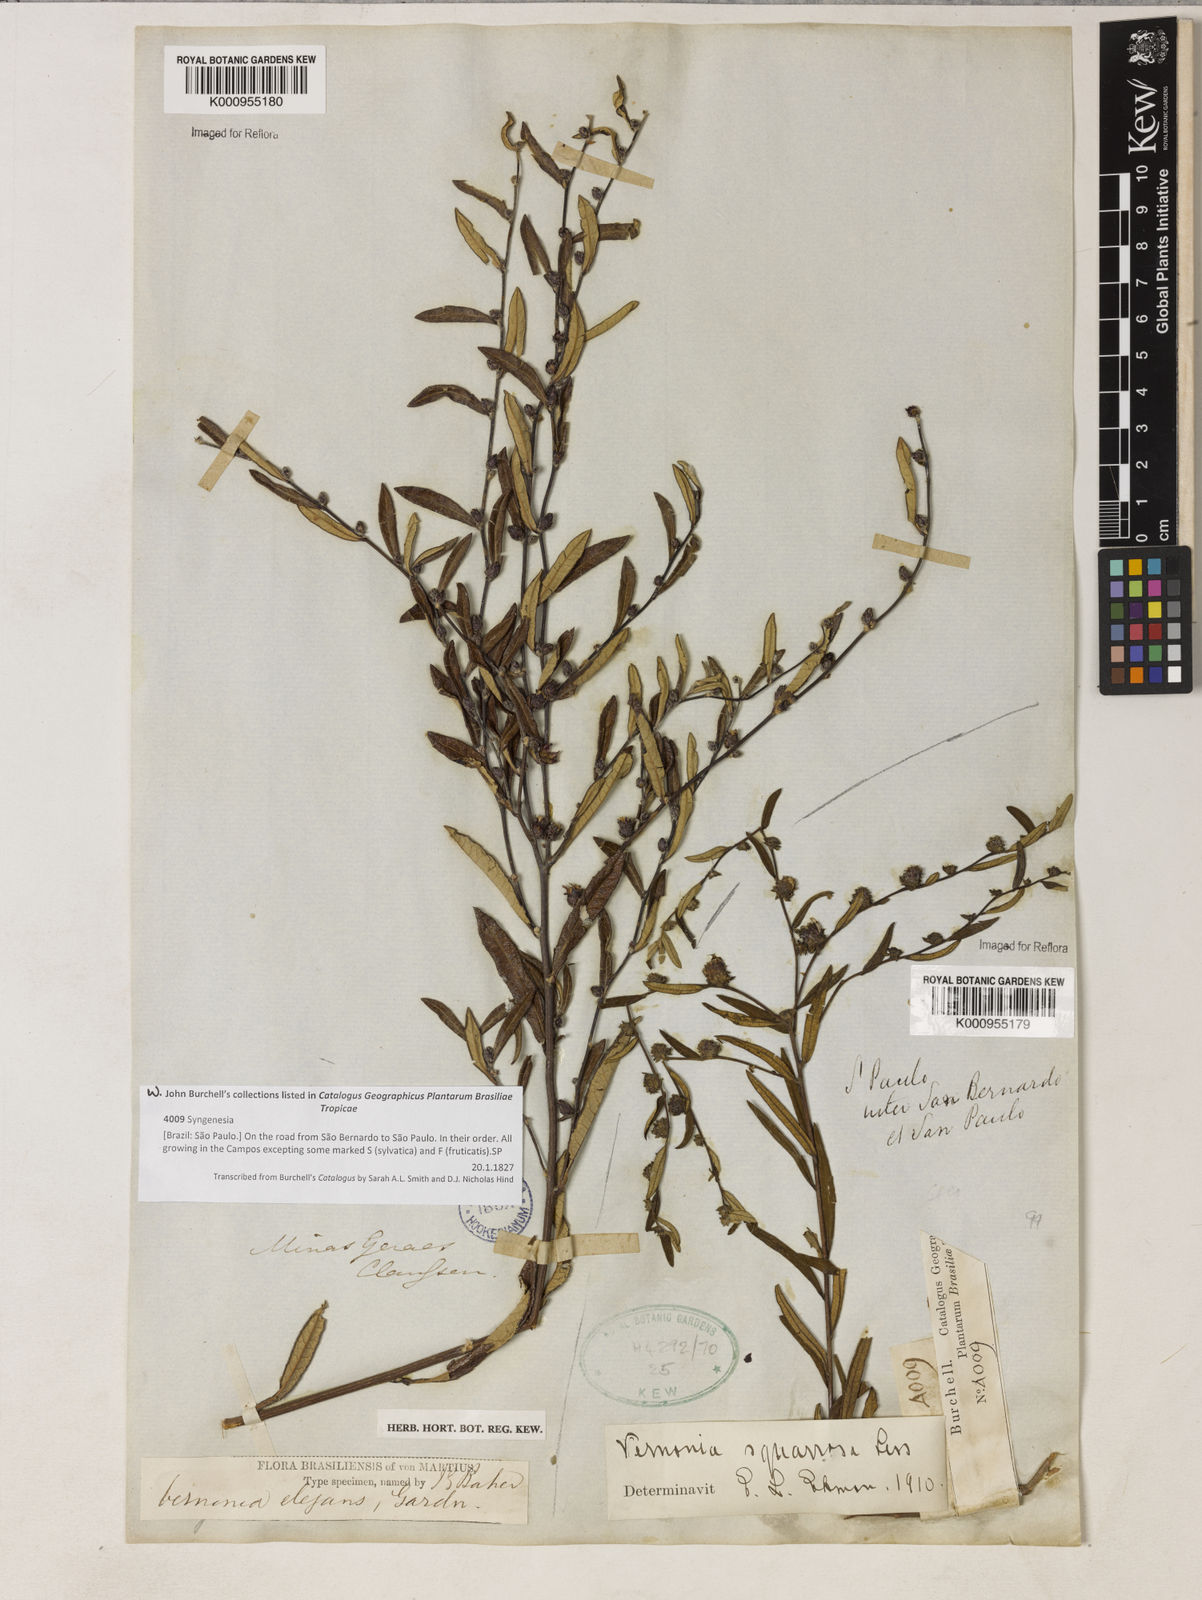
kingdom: Plantae
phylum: Tracheophyta
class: Magnoliopsida
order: Asterales
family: Asteraceae
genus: Lessingianthus
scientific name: Lessingianthus buddlejifolius
